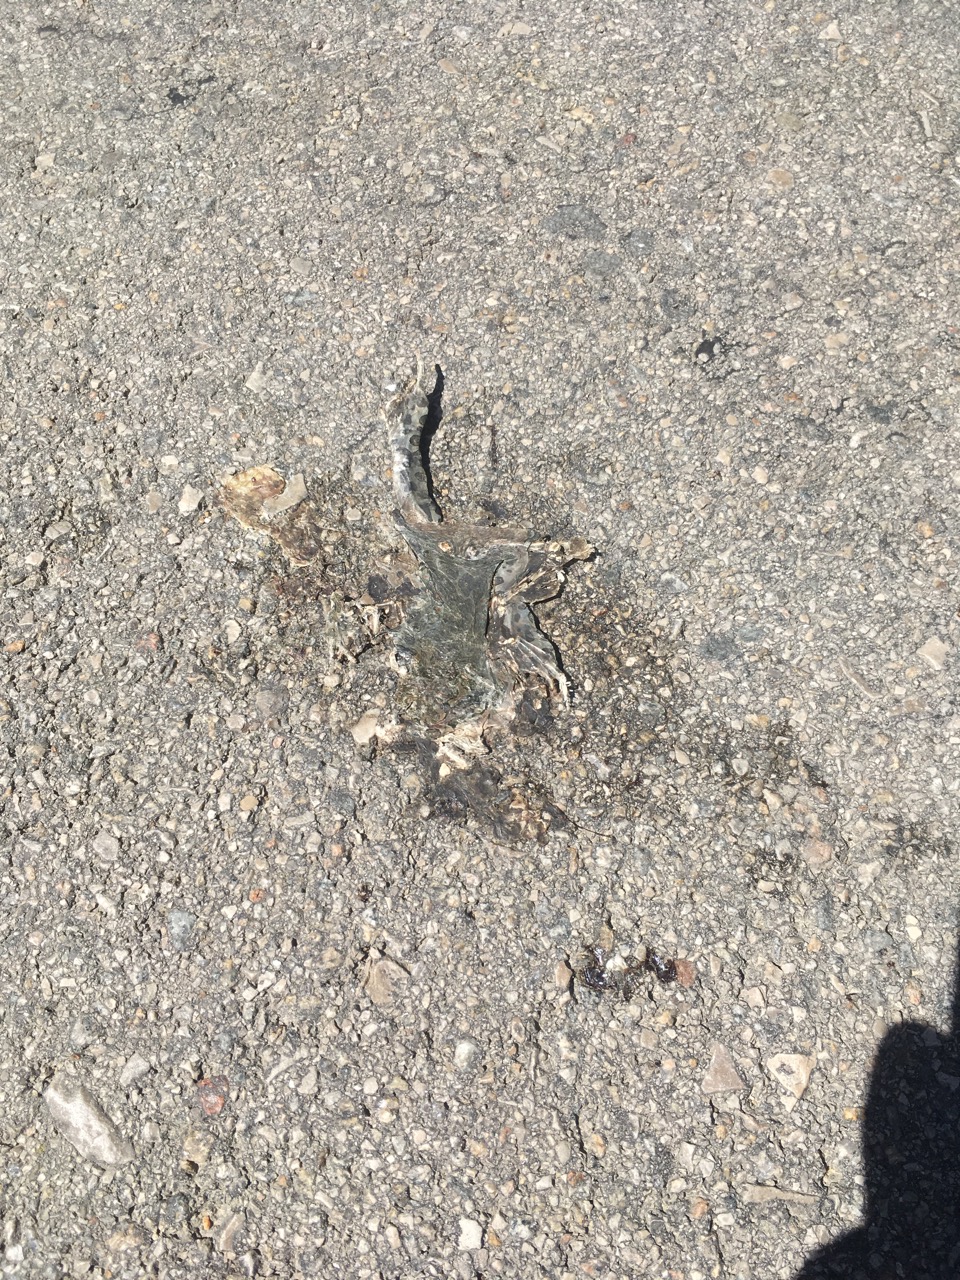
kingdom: Animalia
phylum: Chordata
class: Amphibia
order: Anura
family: Bufonidae
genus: Bufotes
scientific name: Bufotes viridis
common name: European green toad
